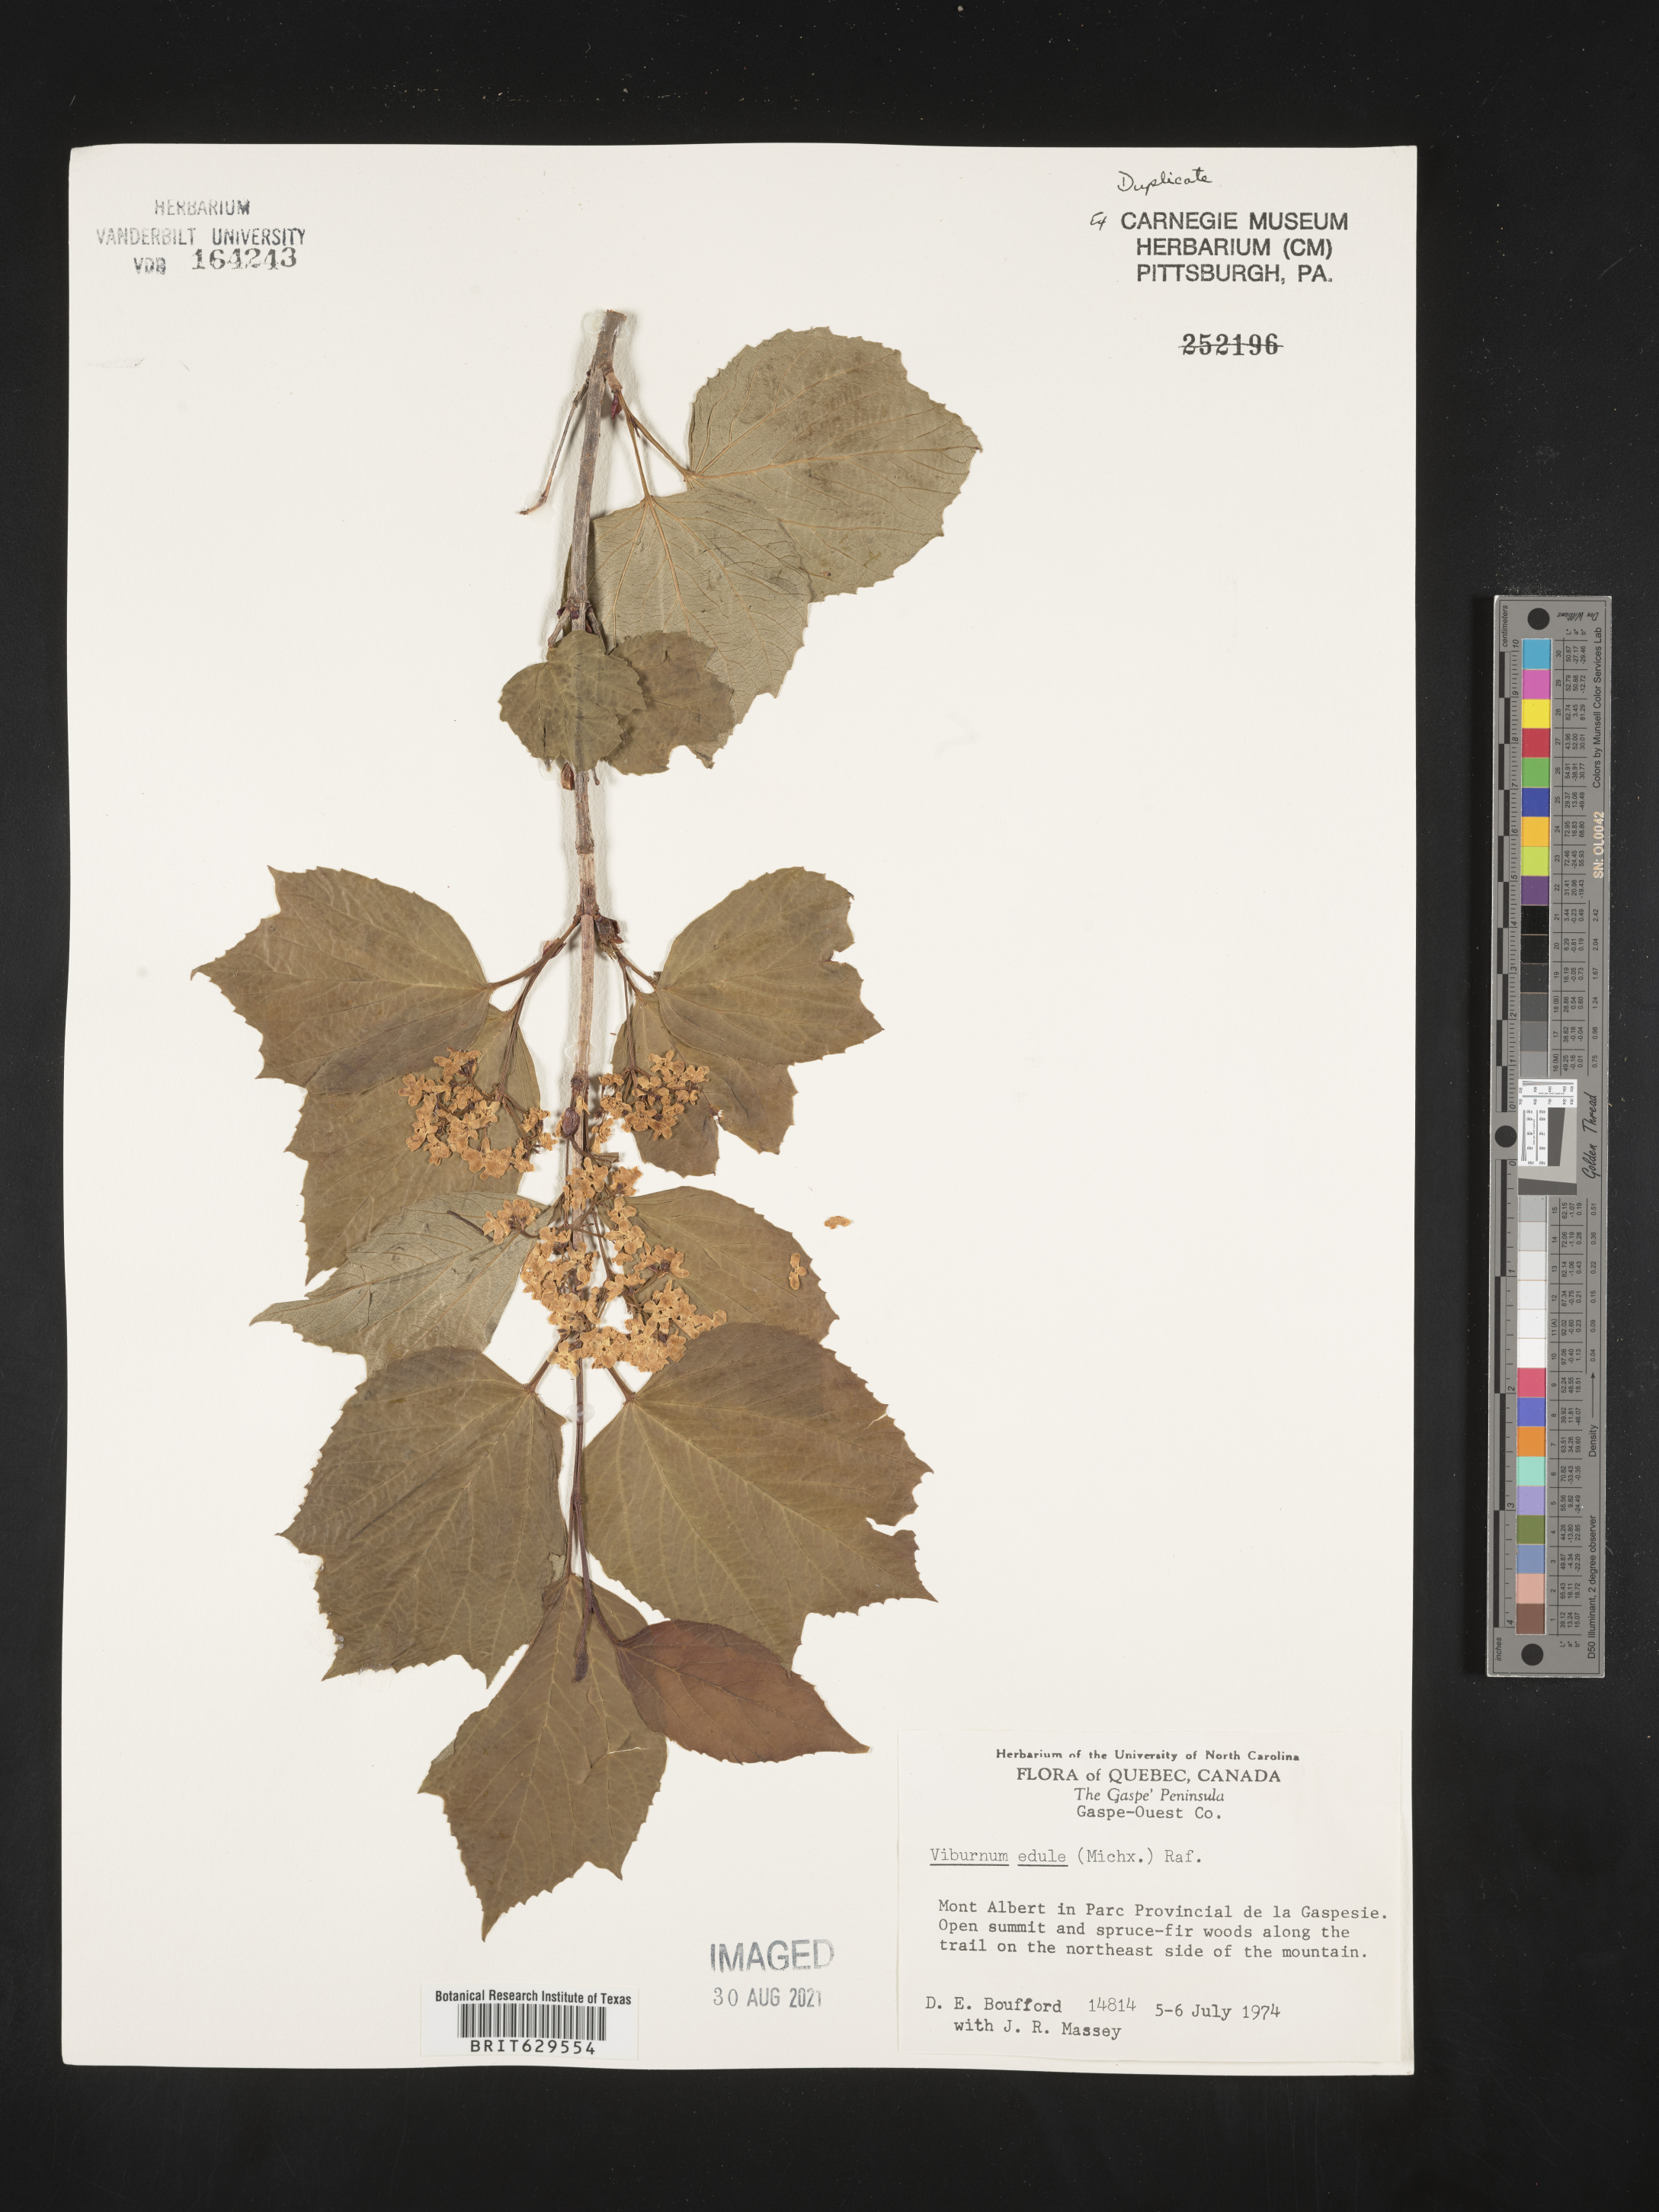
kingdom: Plantae
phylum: Tracheophyta
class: Magnoliopsida
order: Dipsacales
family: Viburnaceae
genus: Viburnum
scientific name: Viburnum edule
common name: Mooseberry
